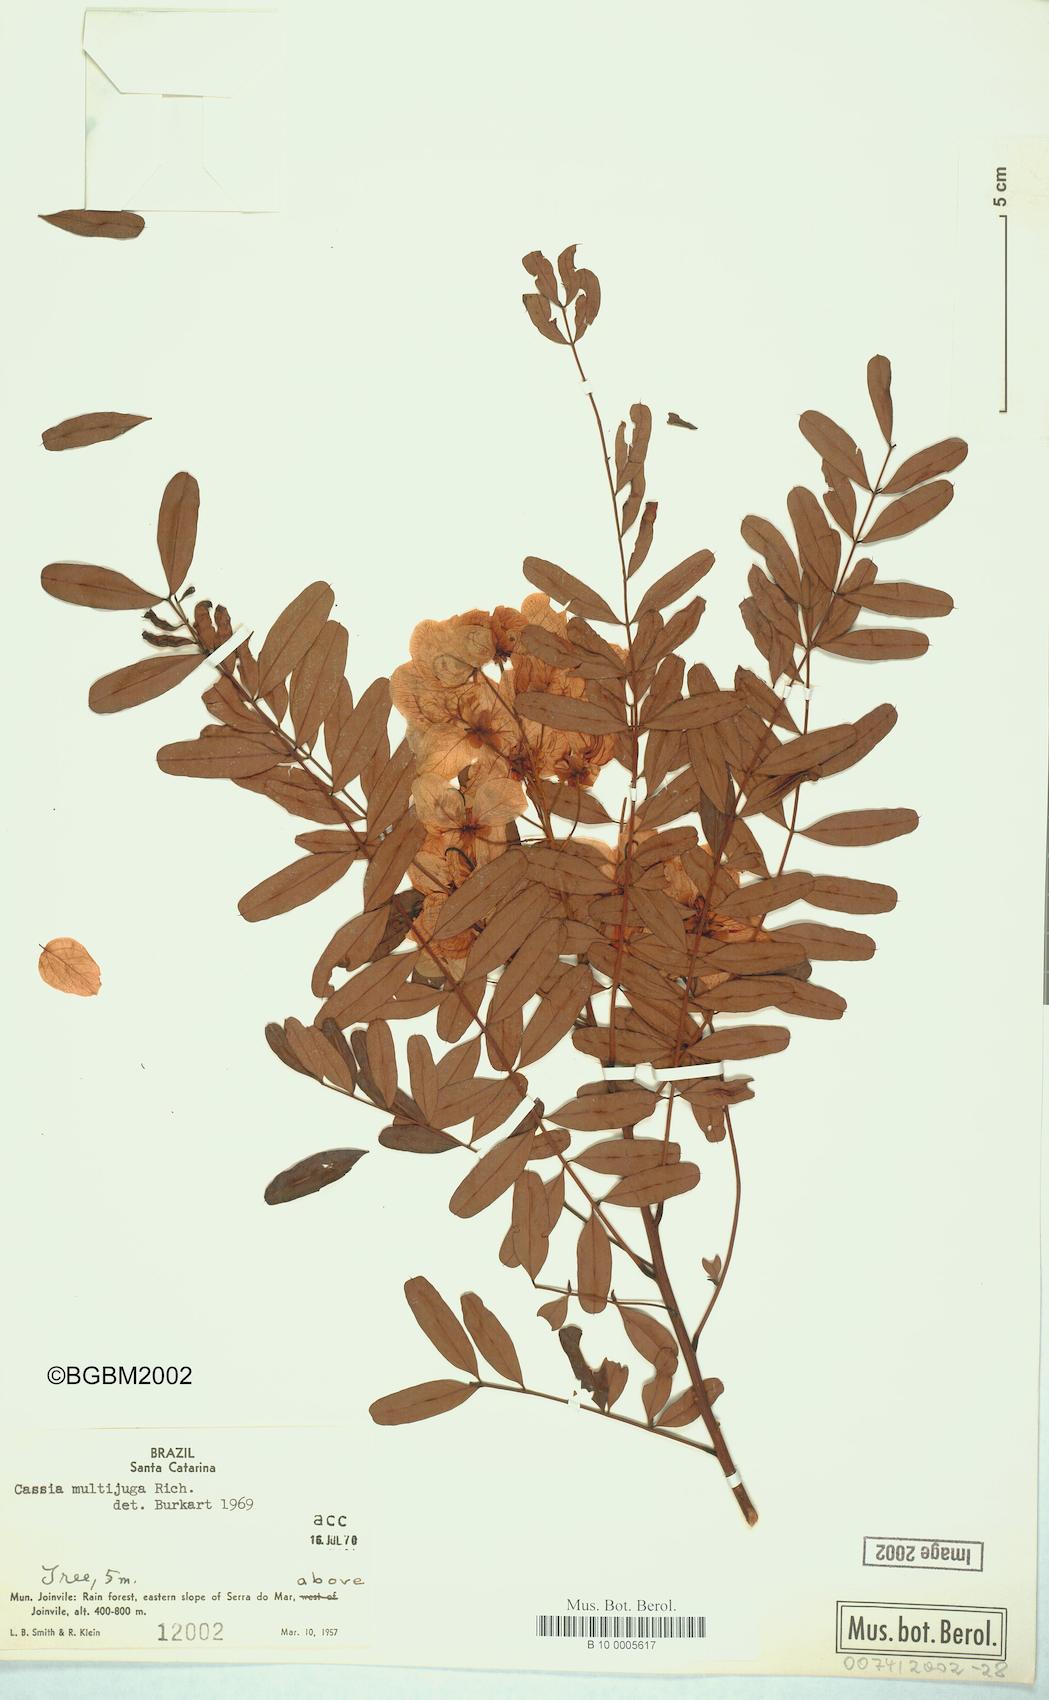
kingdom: Plantae
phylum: Tracheophyta
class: Magnoliopsida
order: Fabales
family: Fabaceae
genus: Senna
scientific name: Senna multijuga
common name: False sicklepod
